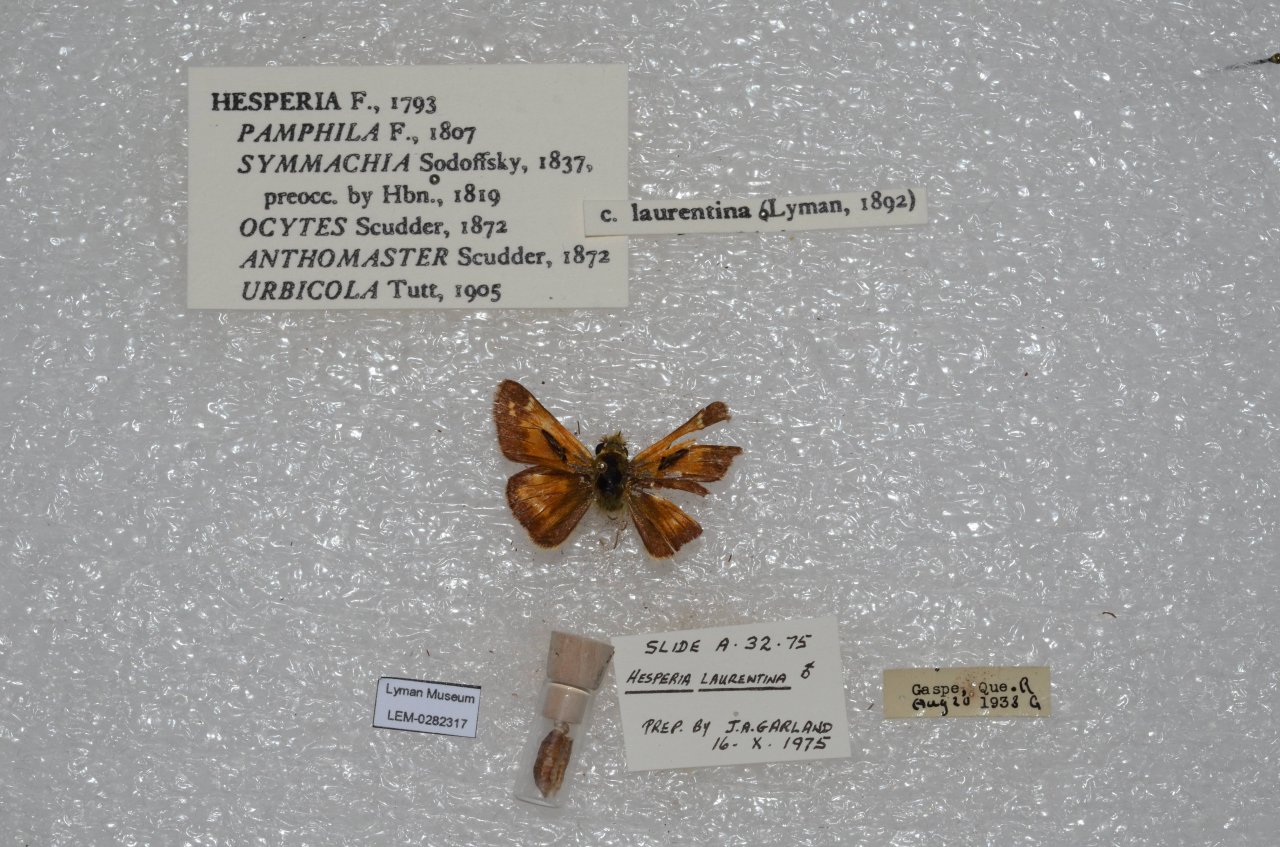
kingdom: Animalia
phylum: Arthropoda
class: Insecta
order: Lepidoptera
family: Hesperiidae
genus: Hesperia
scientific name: Hesperia comma
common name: Common Branded Skipper
